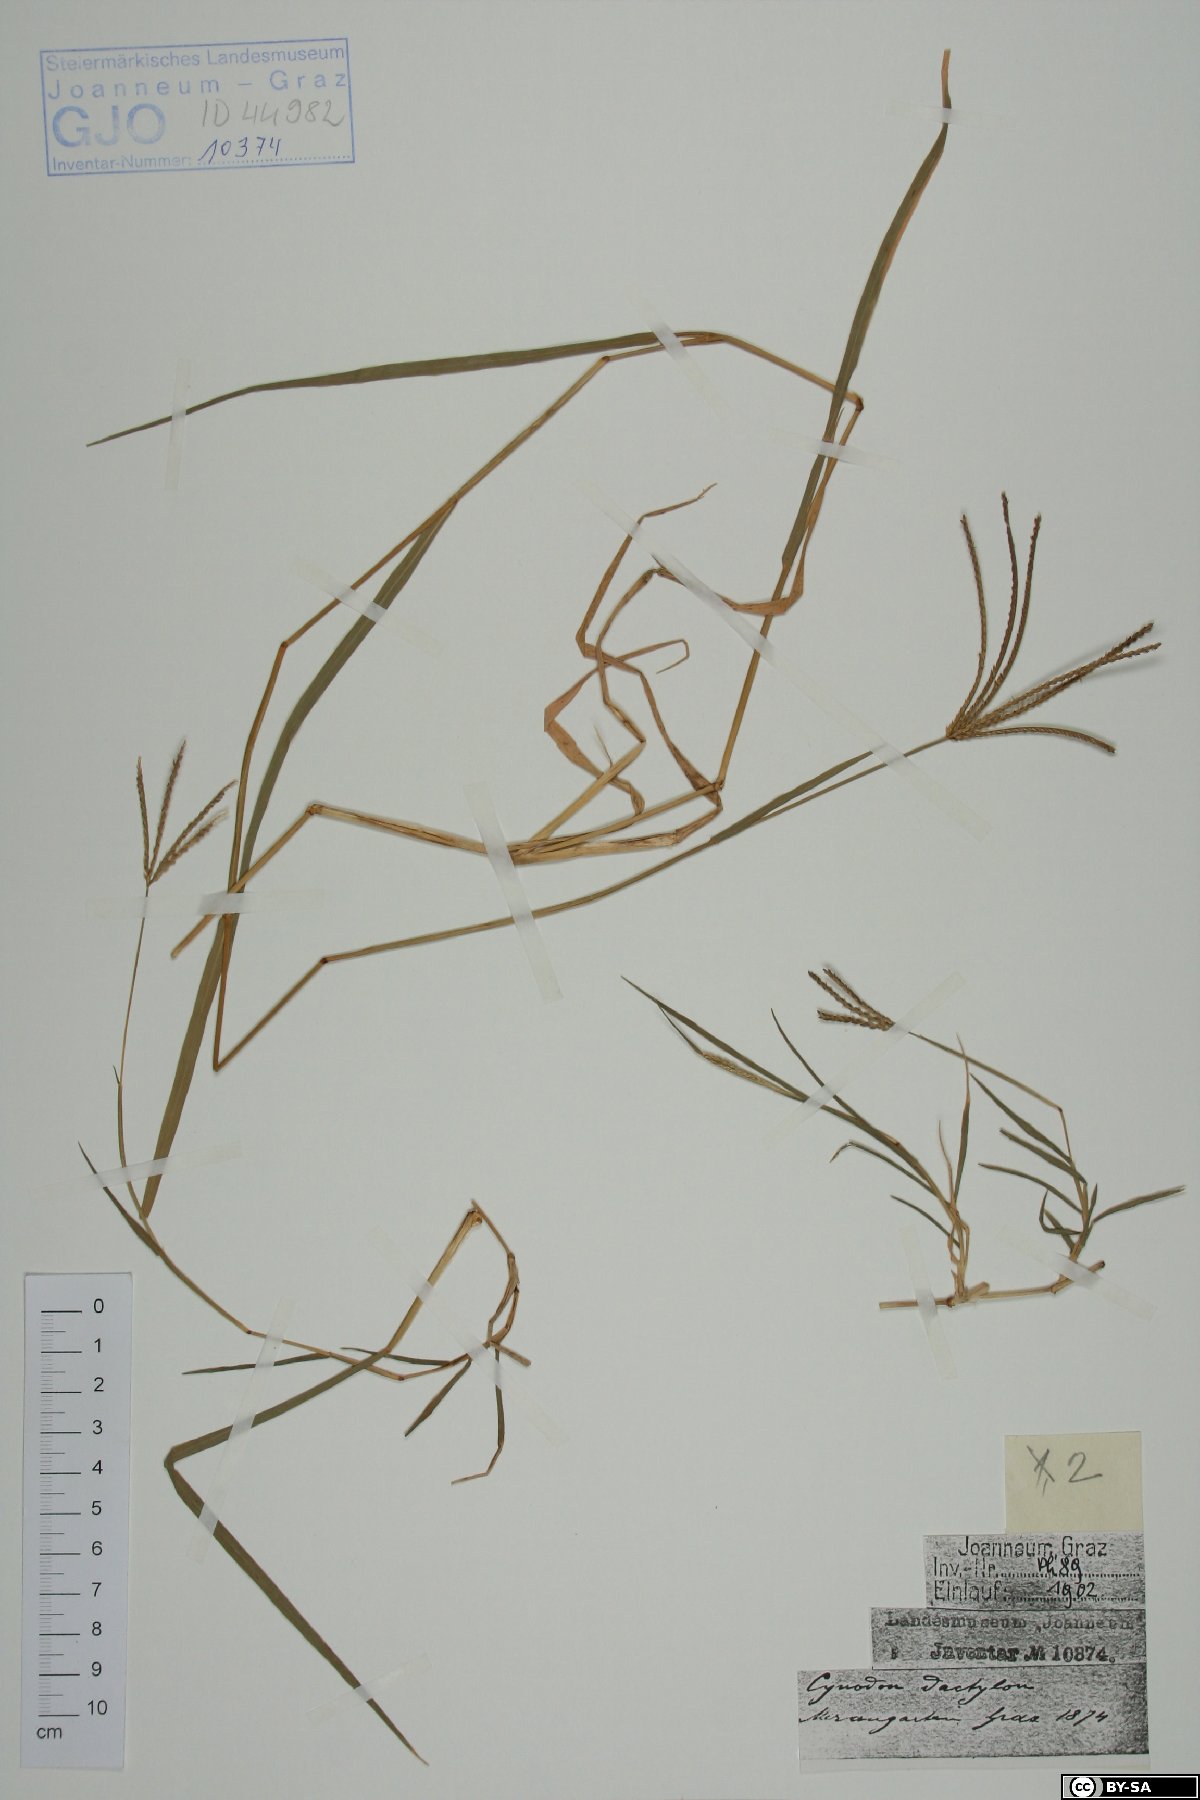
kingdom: Plantae
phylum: Tracheophyta
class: Liliopsida
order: Poales
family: Poaceae
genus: Cynodon
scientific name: Cynodon dactylon
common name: Bermuda grass
